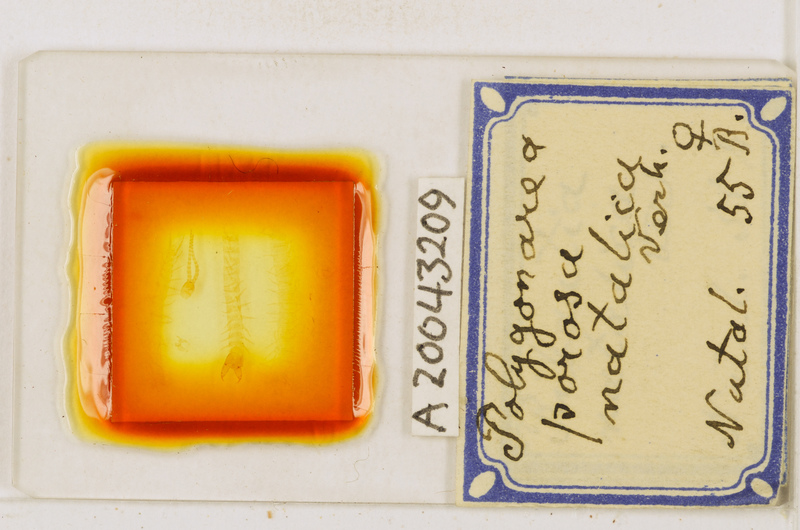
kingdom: Animalia
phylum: Arthropoda
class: Chilopoda
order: Geophilomorpha
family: Geophilidae
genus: Polygonarea
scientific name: Polygonarea africana
